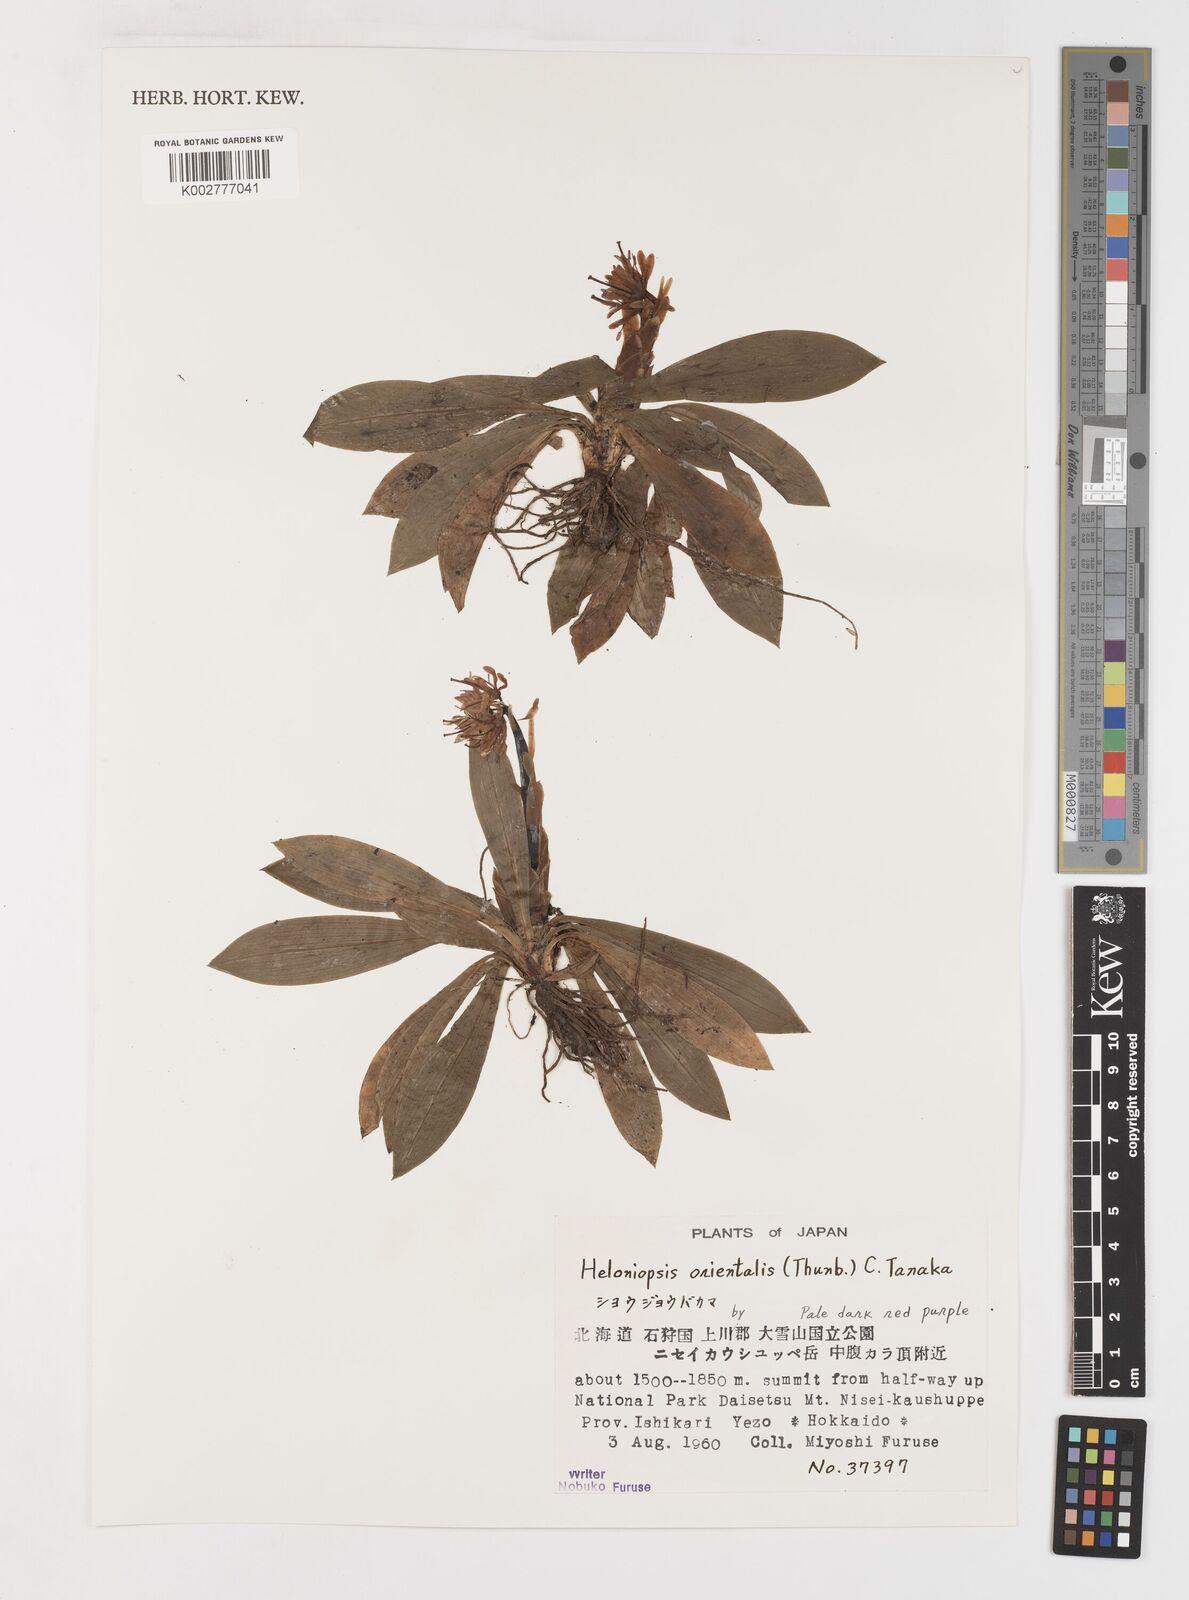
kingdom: Plantae
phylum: Tracheophyta
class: Liliopsida
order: Liliales
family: Melanthiaceae
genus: Helonias
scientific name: Helonias orientalis
